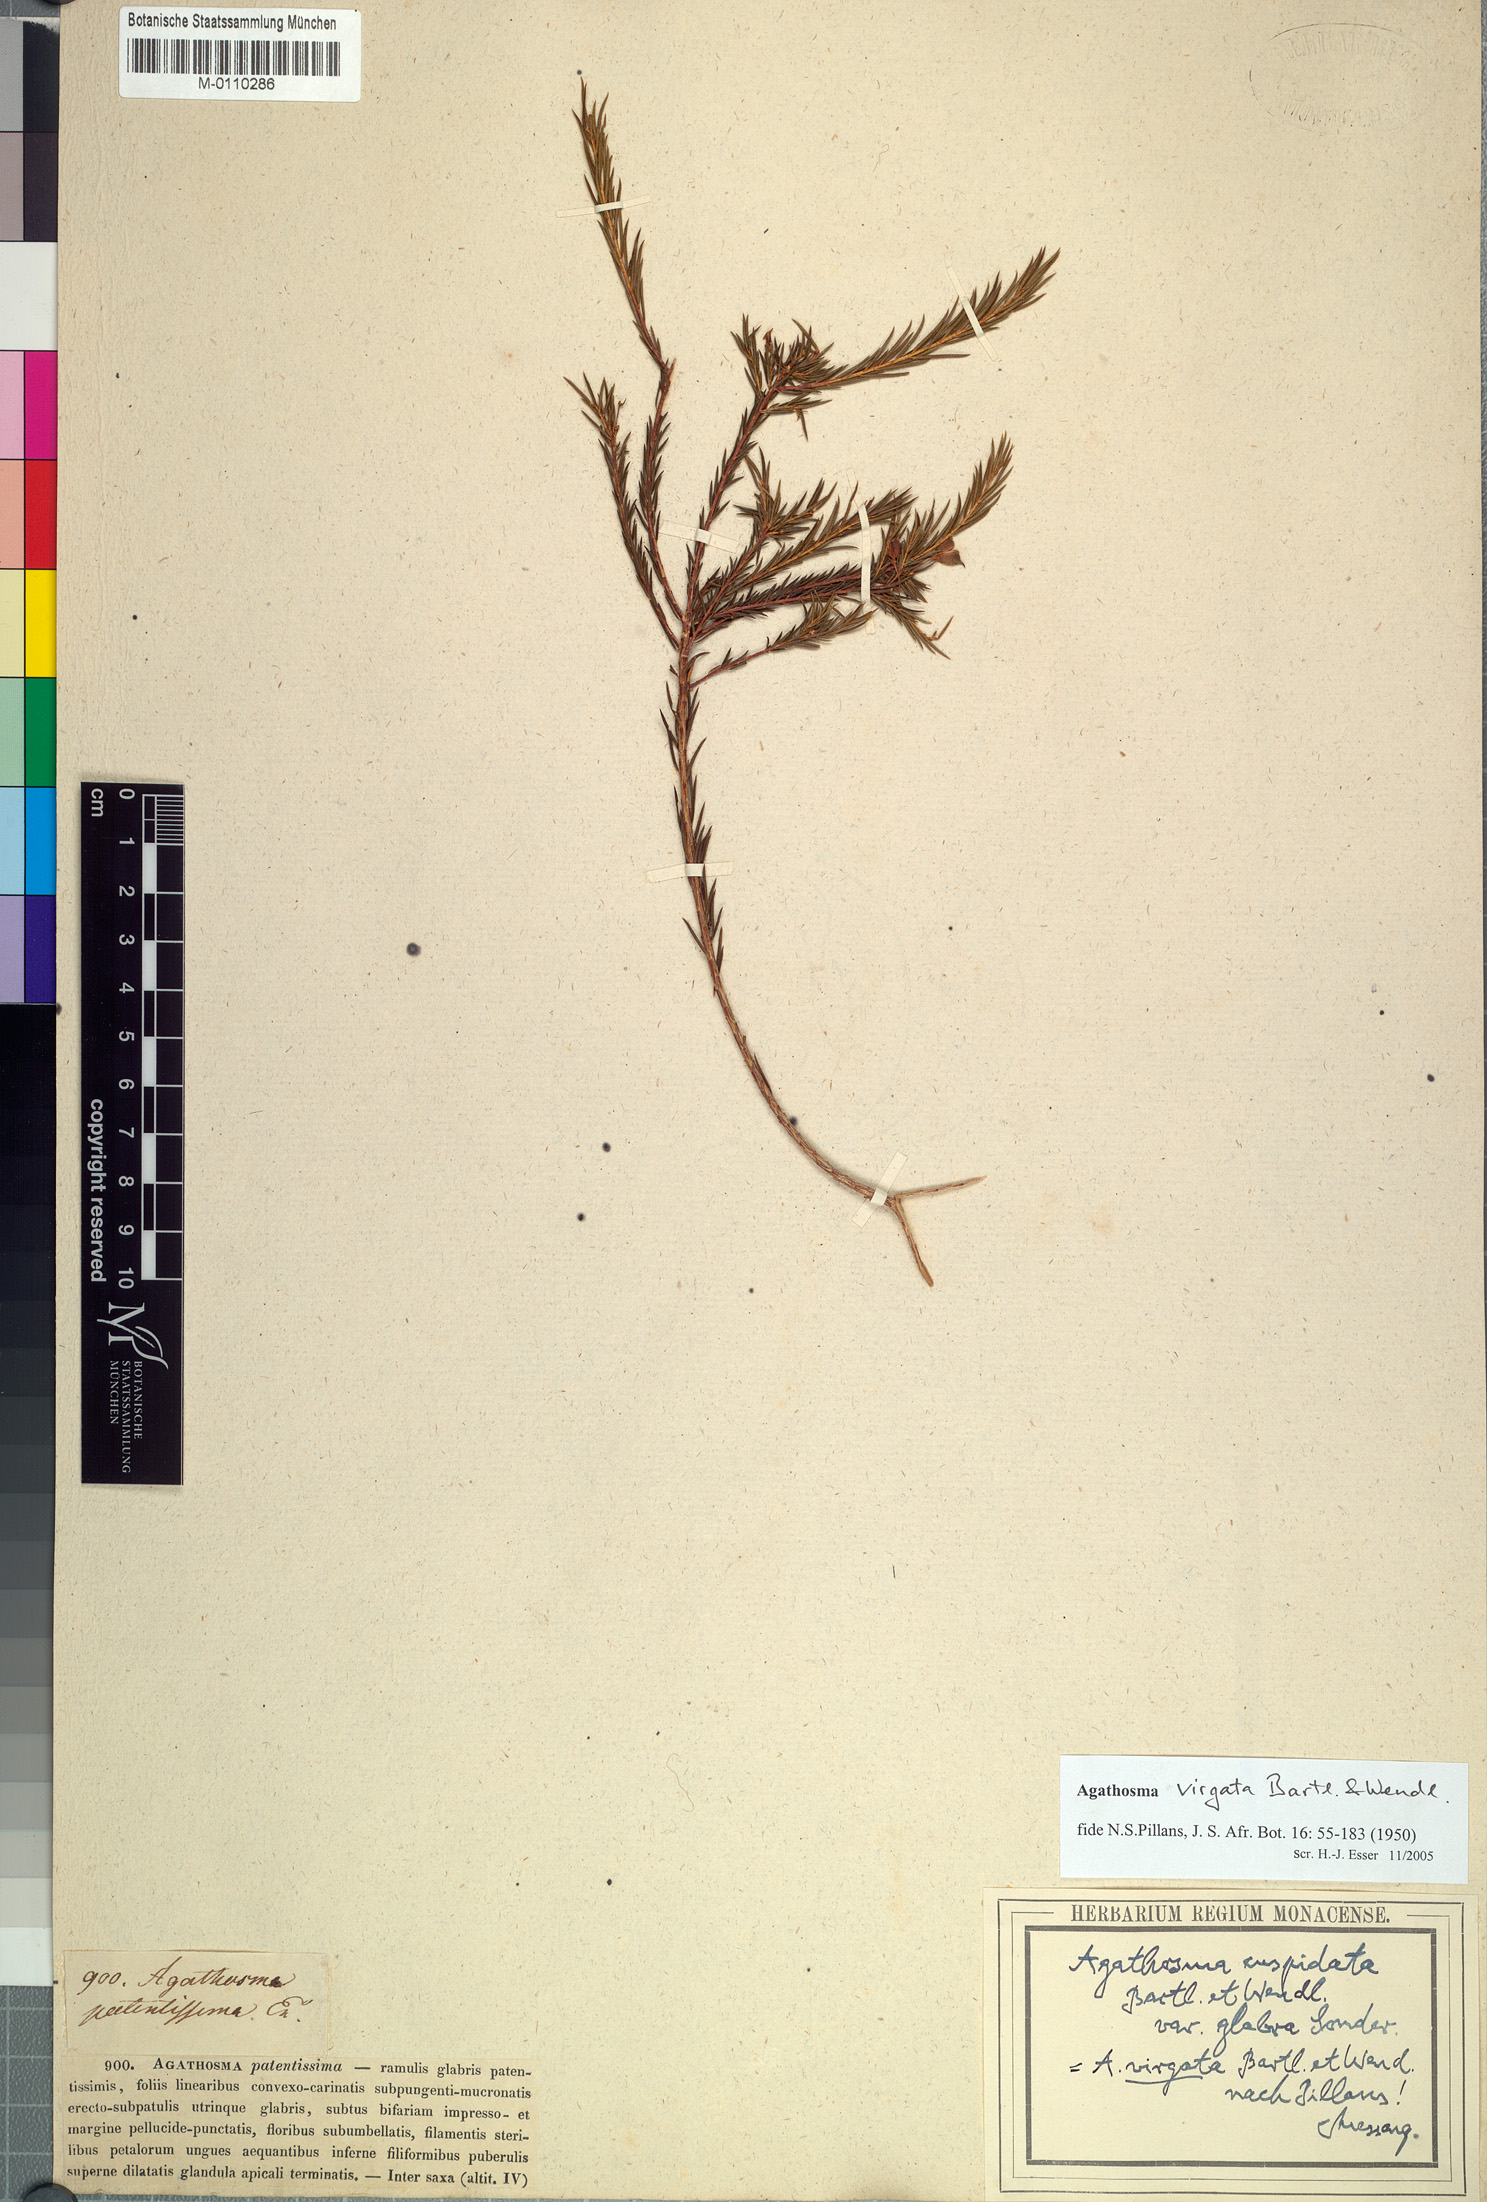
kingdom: Plantae
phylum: Tracheophyta
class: Magnoliopsida
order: Sapindales
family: Rutaceae
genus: Agathosma
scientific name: Agathosma virgata
